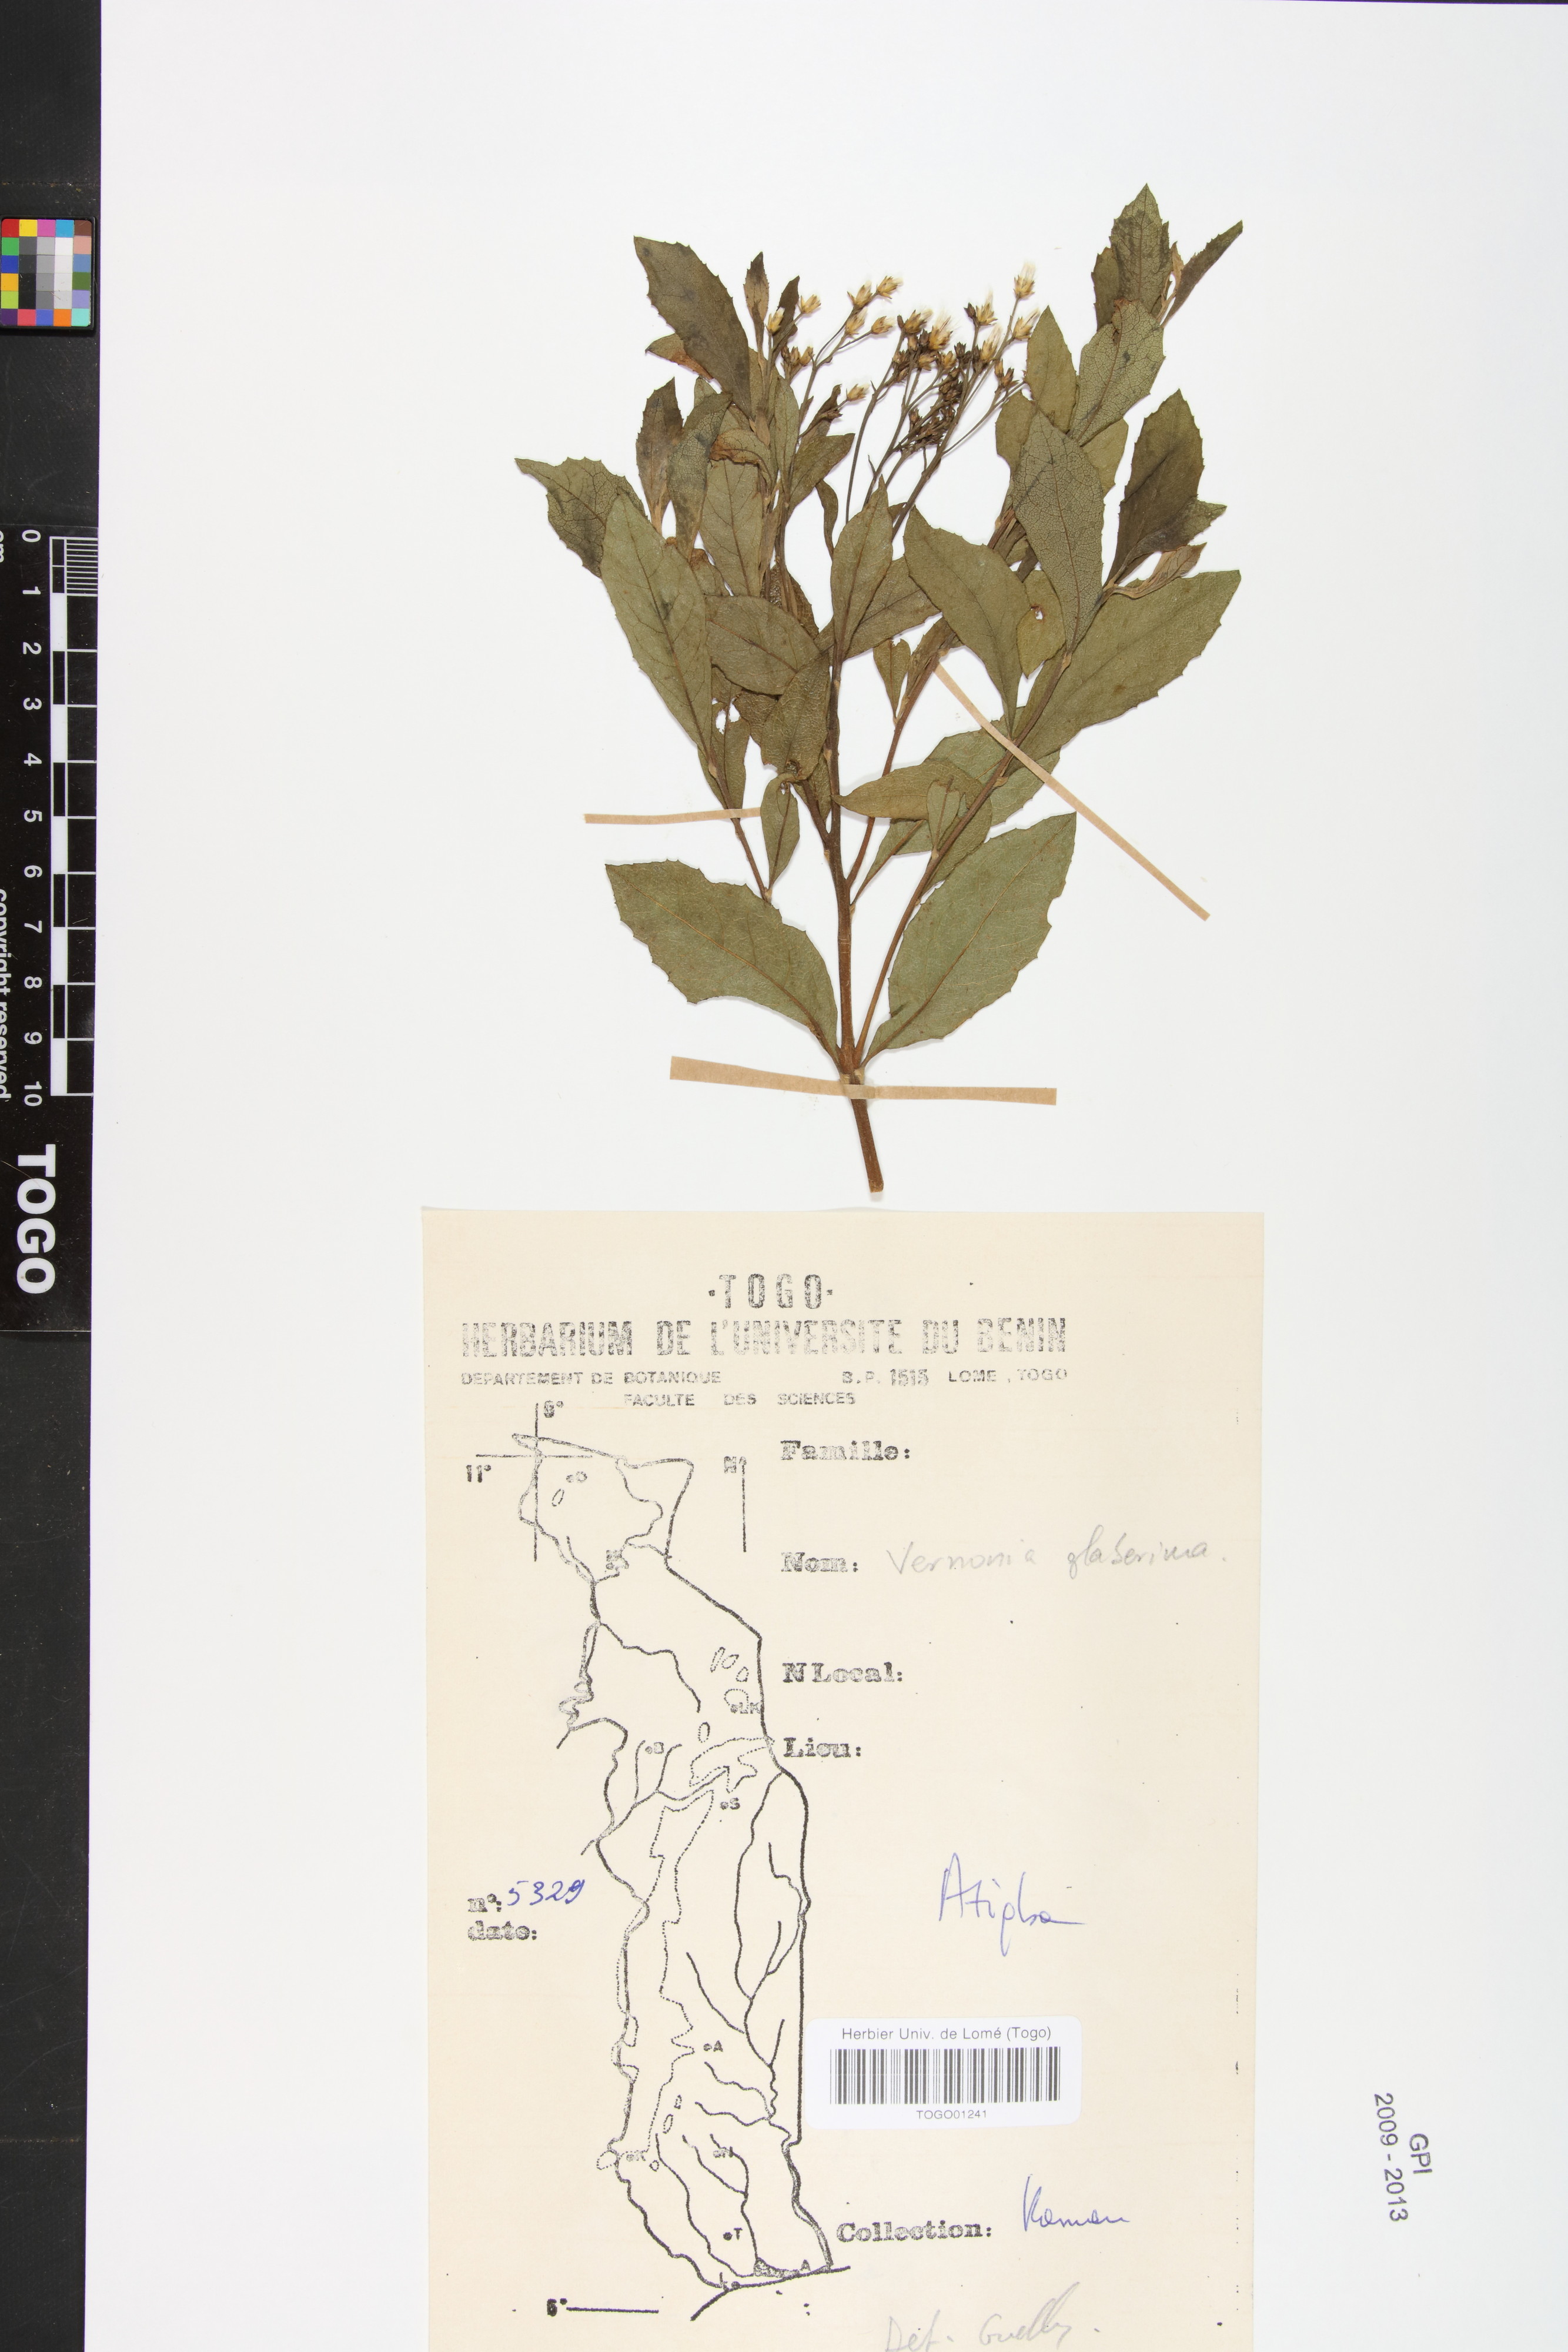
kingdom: Plantae
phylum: Tracheophyta
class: Magnoliopsida
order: Asterales
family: Asteraceae
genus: Gymnanthemum
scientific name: Gymnanthemum glaberrimum
